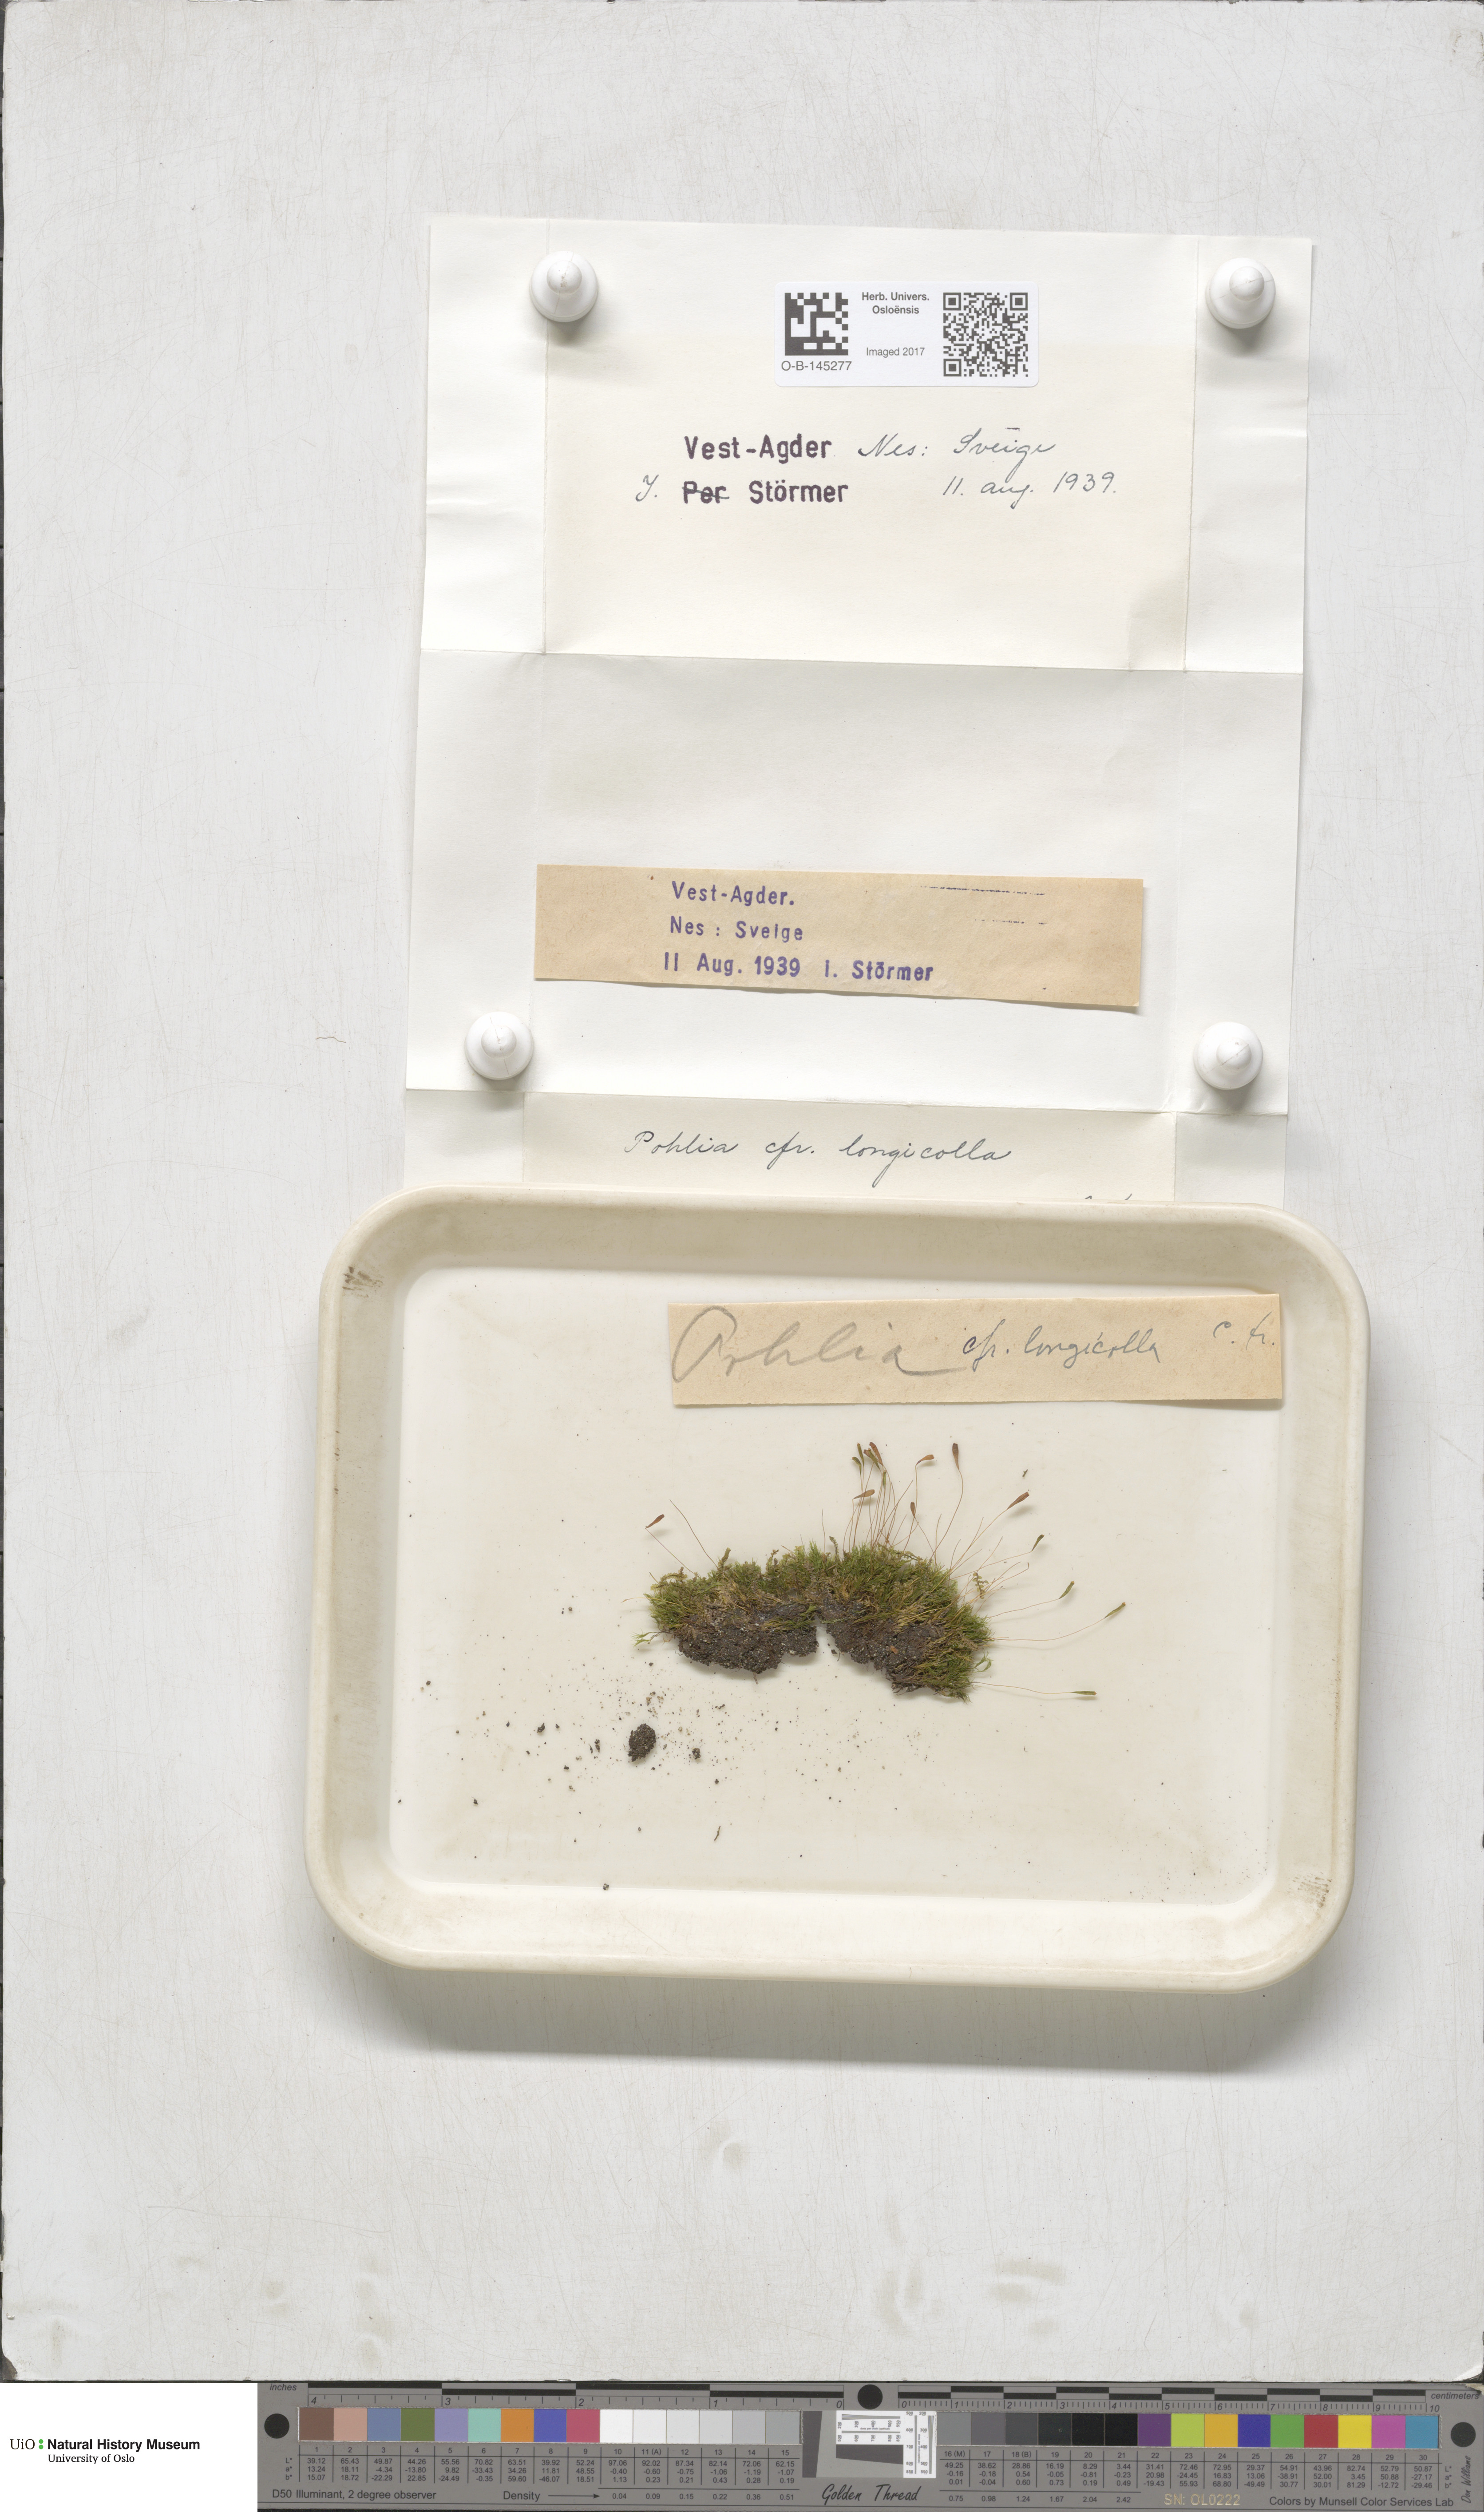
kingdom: Plantae
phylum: Bryophyta
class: Bryopsida
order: Bryales
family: Mniaceae
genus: Pohlia
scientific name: Pohlia longicolla
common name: Long-necked nodding moss
